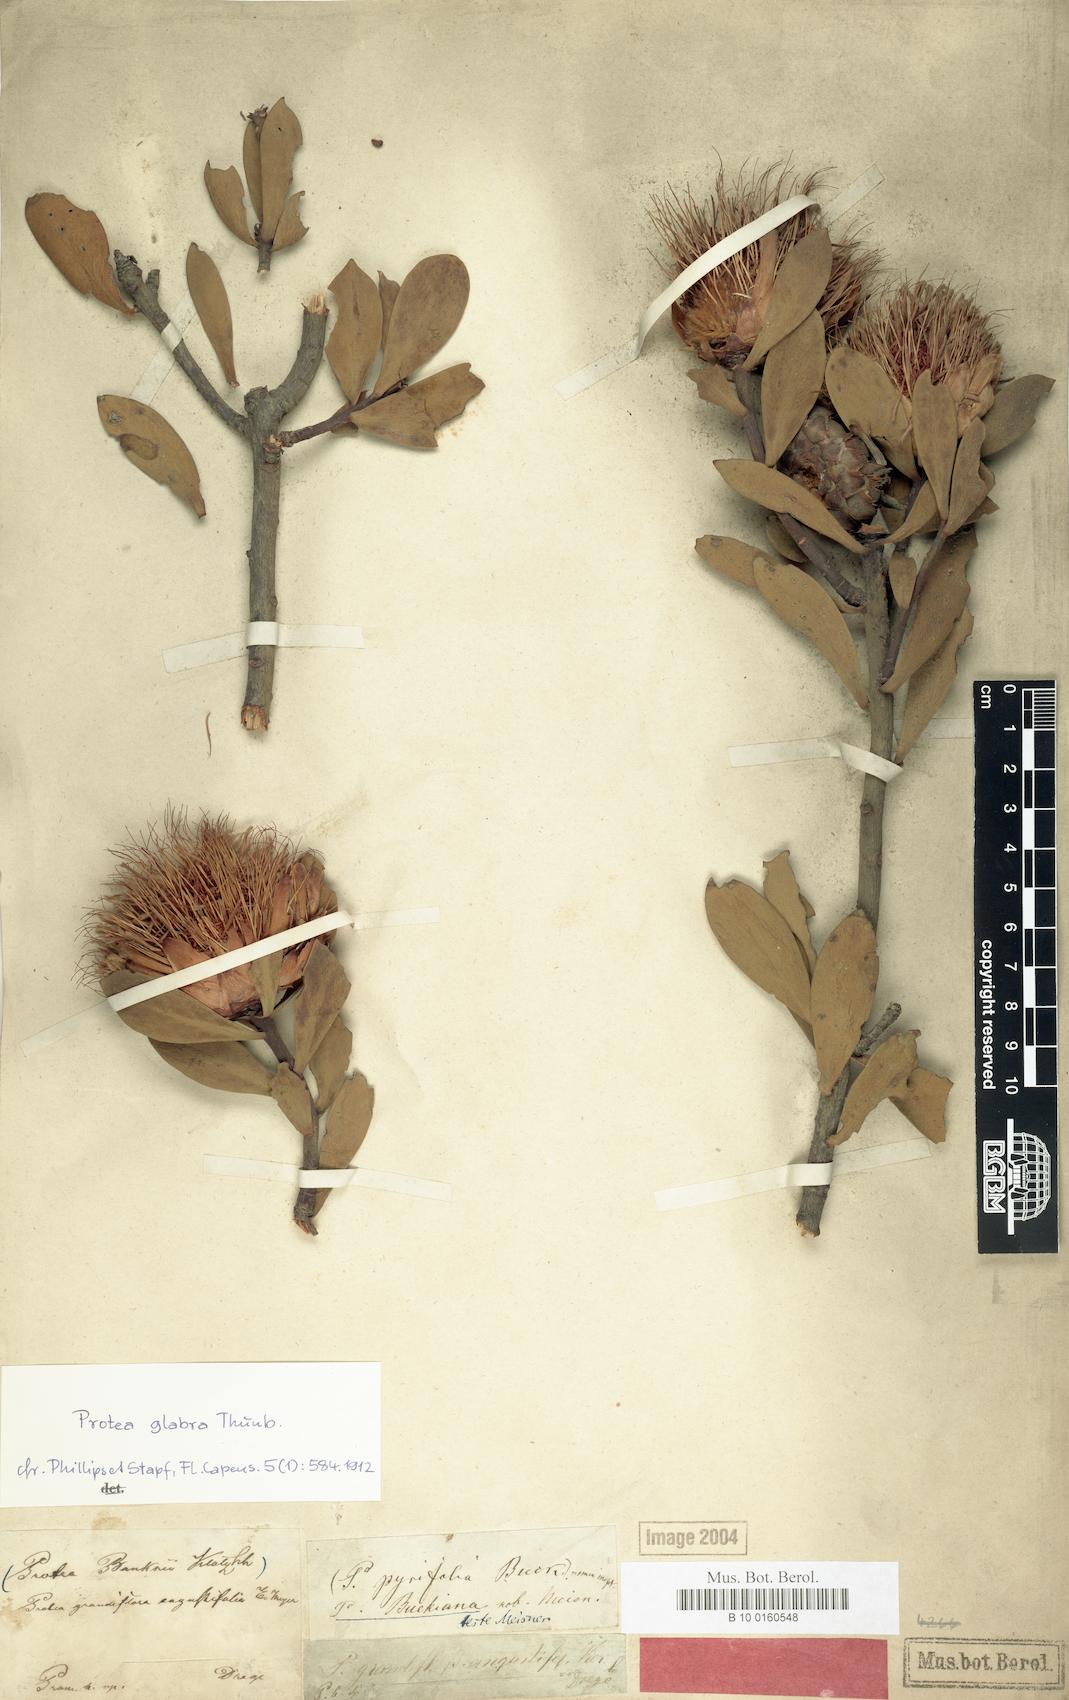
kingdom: Plantae
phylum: Tracheophyta
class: Magnoliopsida
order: Proteales
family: Proteaceae
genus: Protea
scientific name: Protea glabra
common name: Chestnut sugarbush
